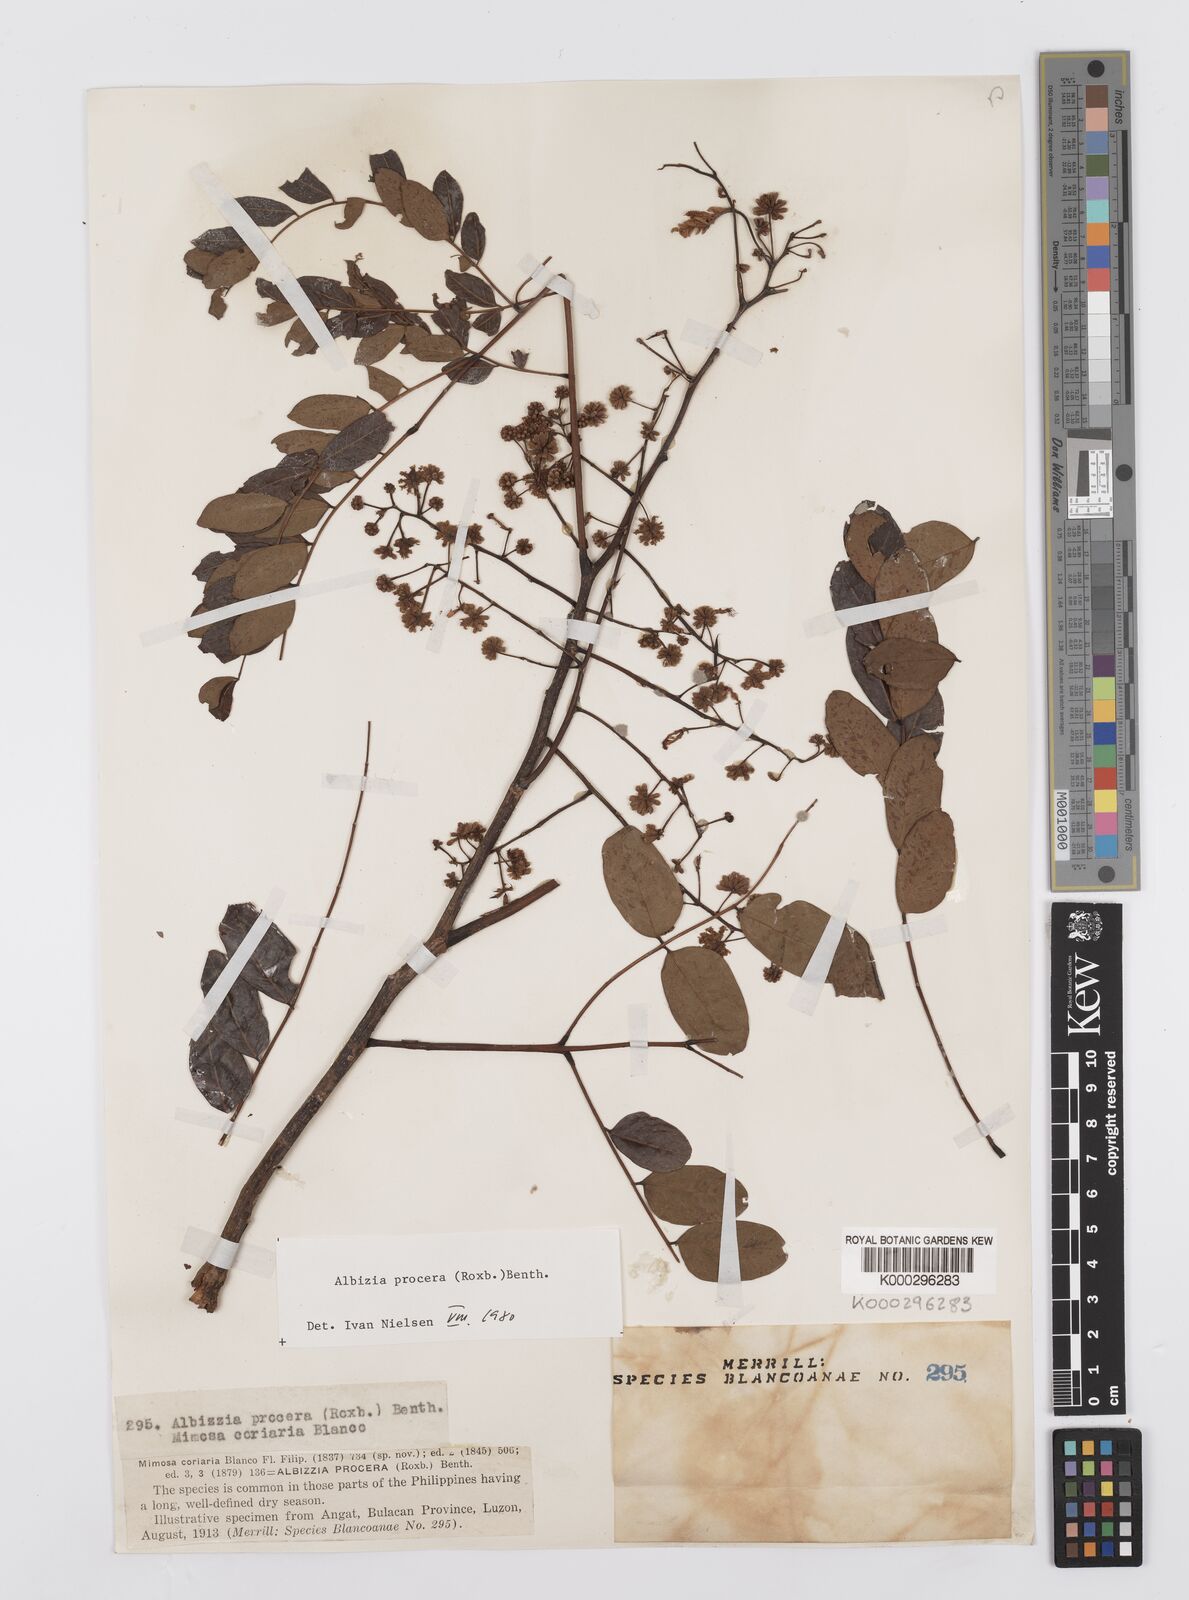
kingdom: Plantae
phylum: Tracheophyta
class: Magnoliopsida
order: Fabales
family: Fabaceae
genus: Albizia
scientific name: Albizia procera
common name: Tall albizia
